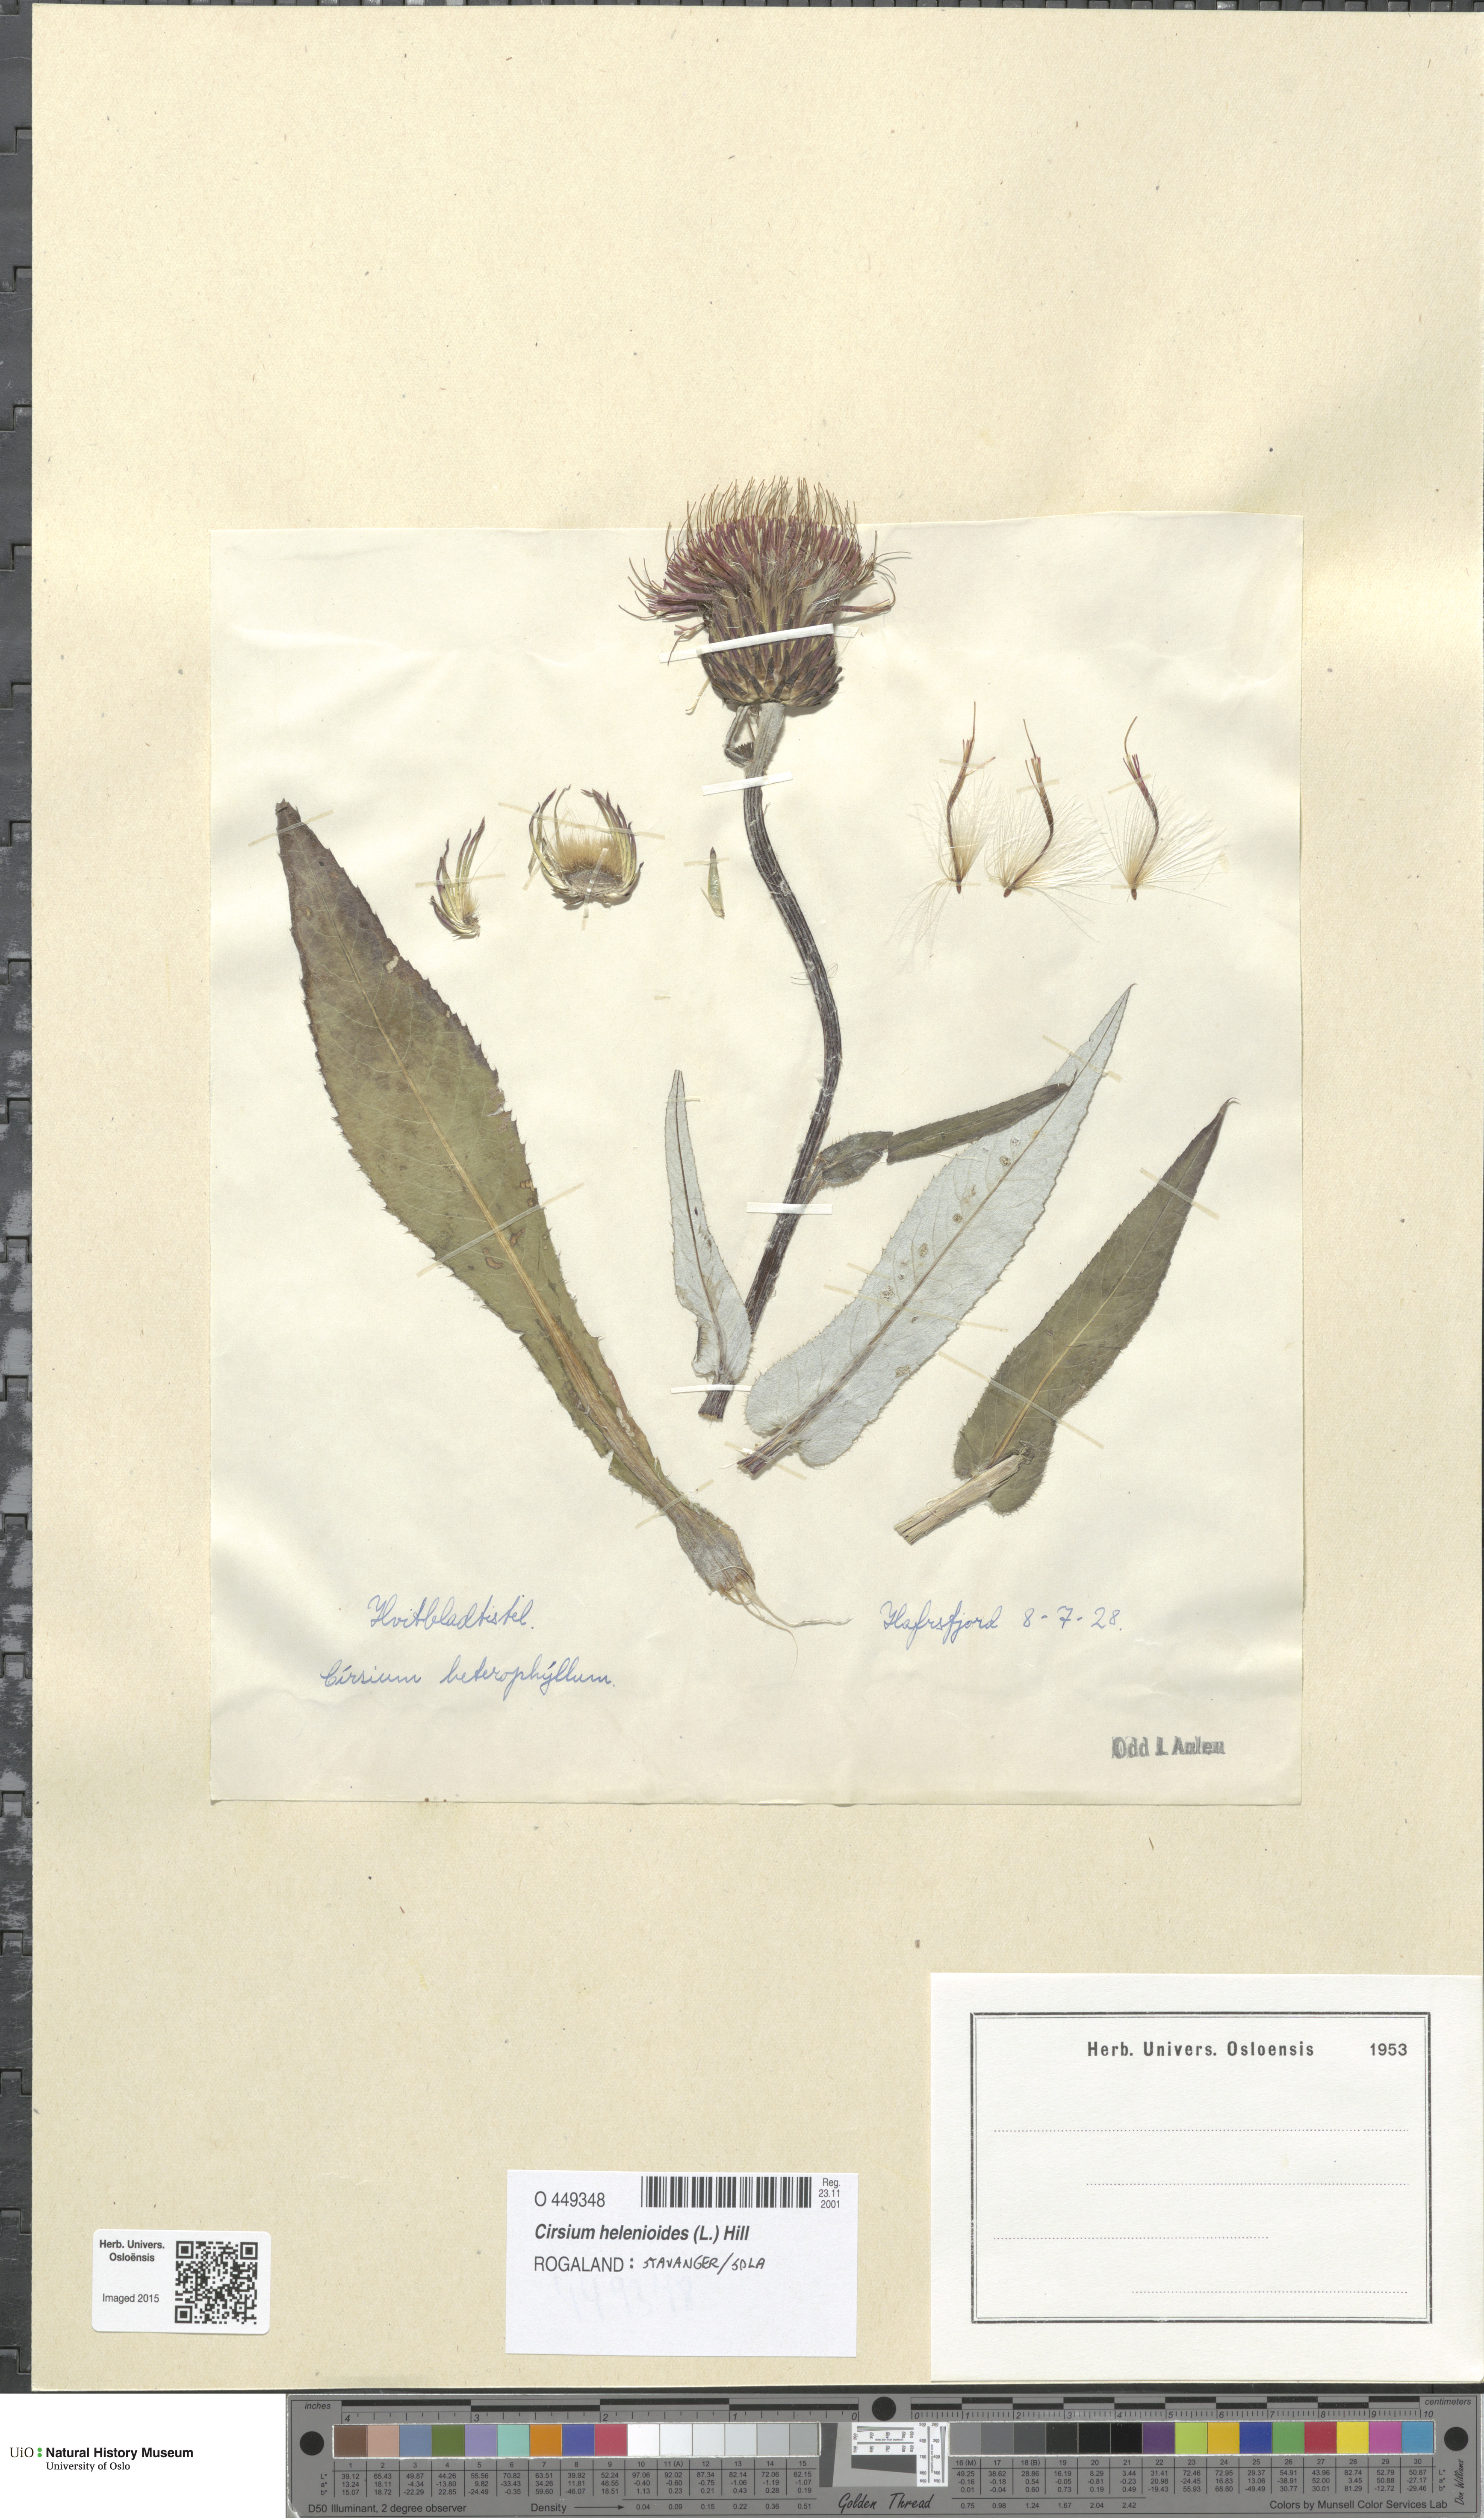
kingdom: Plantae
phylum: Tracheophyta
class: Magnoliopsida
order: Asterales
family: Asteraceae
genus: Cirsium
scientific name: Cirsium heterophyllum
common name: Melancholy thistle
